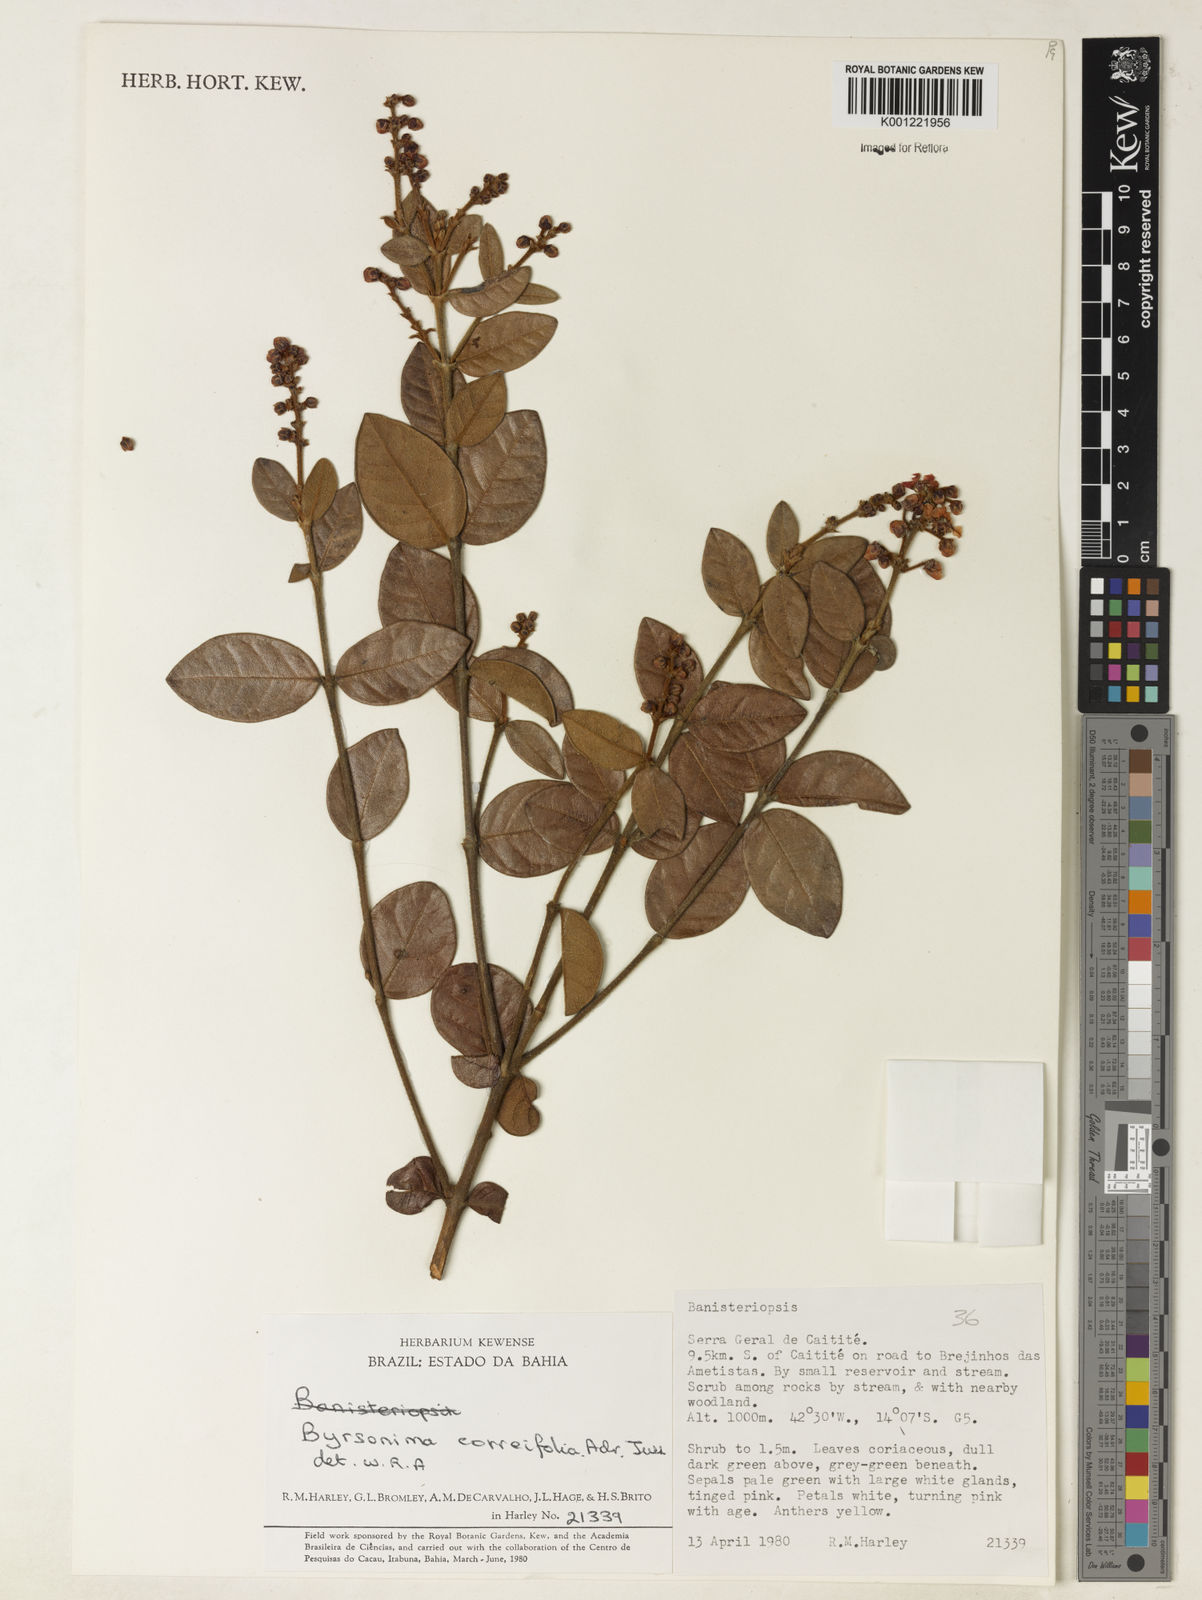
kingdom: Plantae
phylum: Tracheophyta
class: Magnoliopsida
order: Malpighiales
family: Malpighiaceae
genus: Byrsonima
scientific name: Byrsonima correifolia
